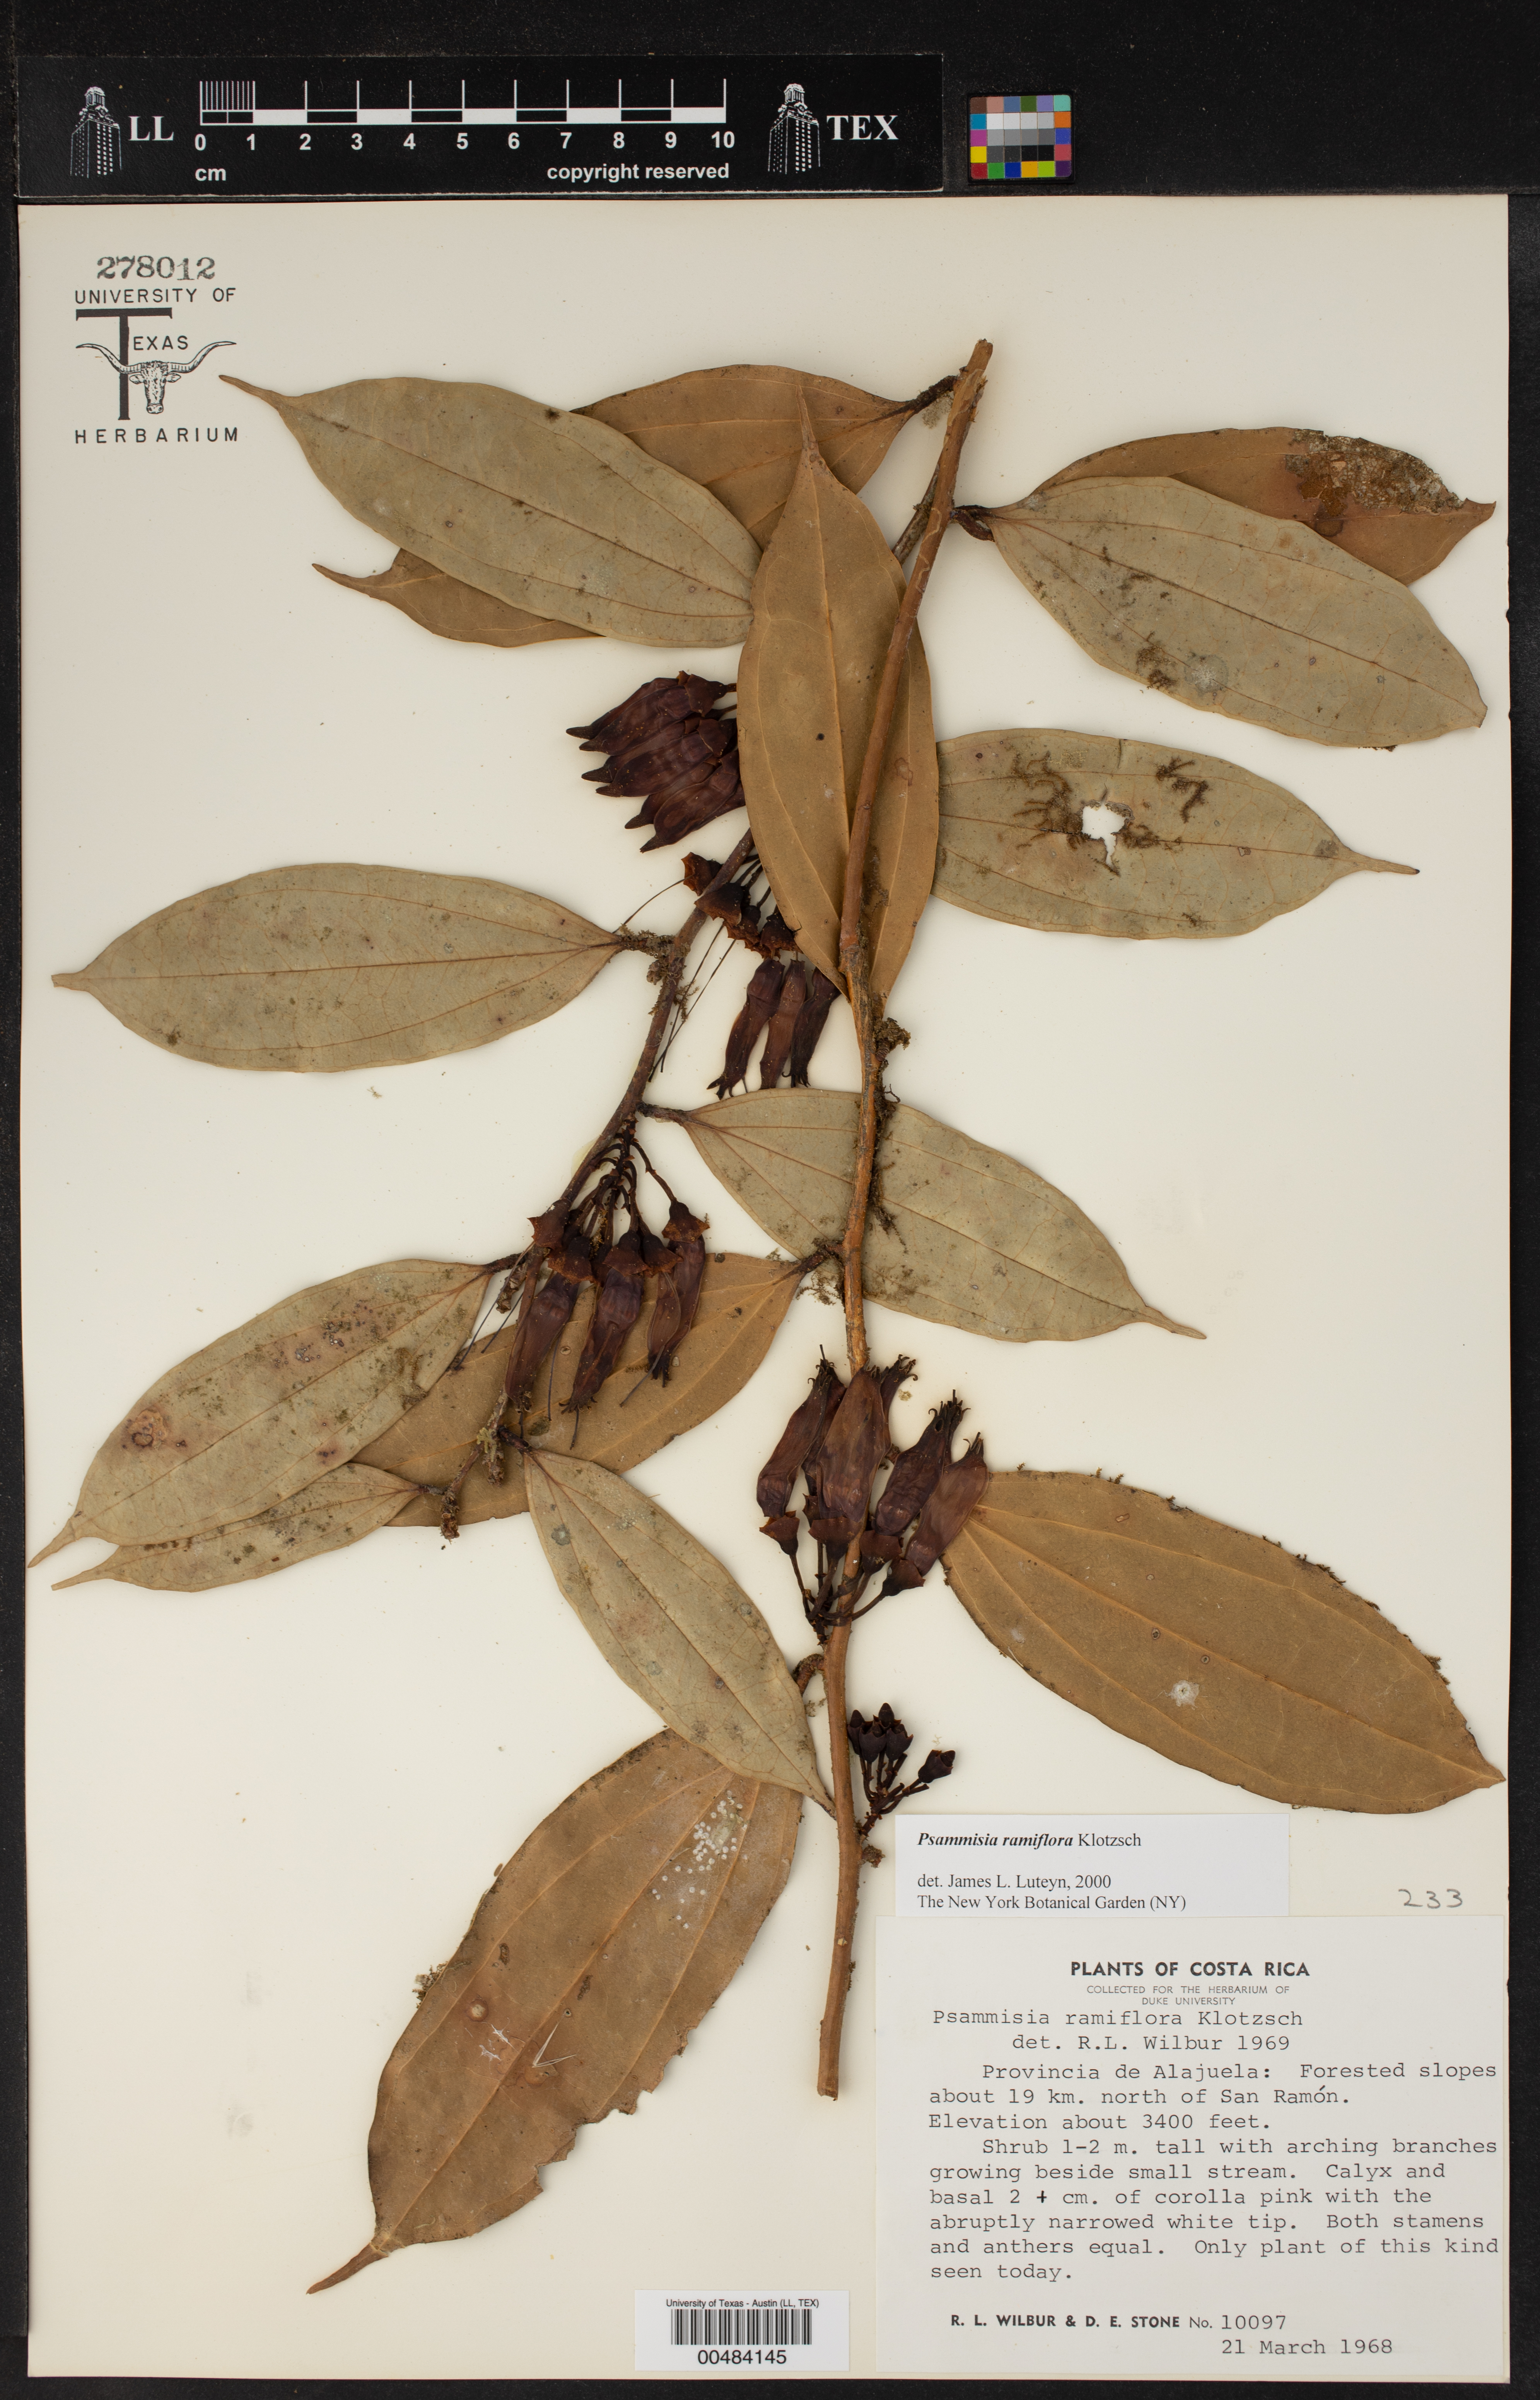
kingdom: Plantae
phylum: Tracheophyta
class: Magnoliopsida
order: Ericales
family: Ericaceae
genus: Psammisia
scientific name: Psammisia ramiflora
